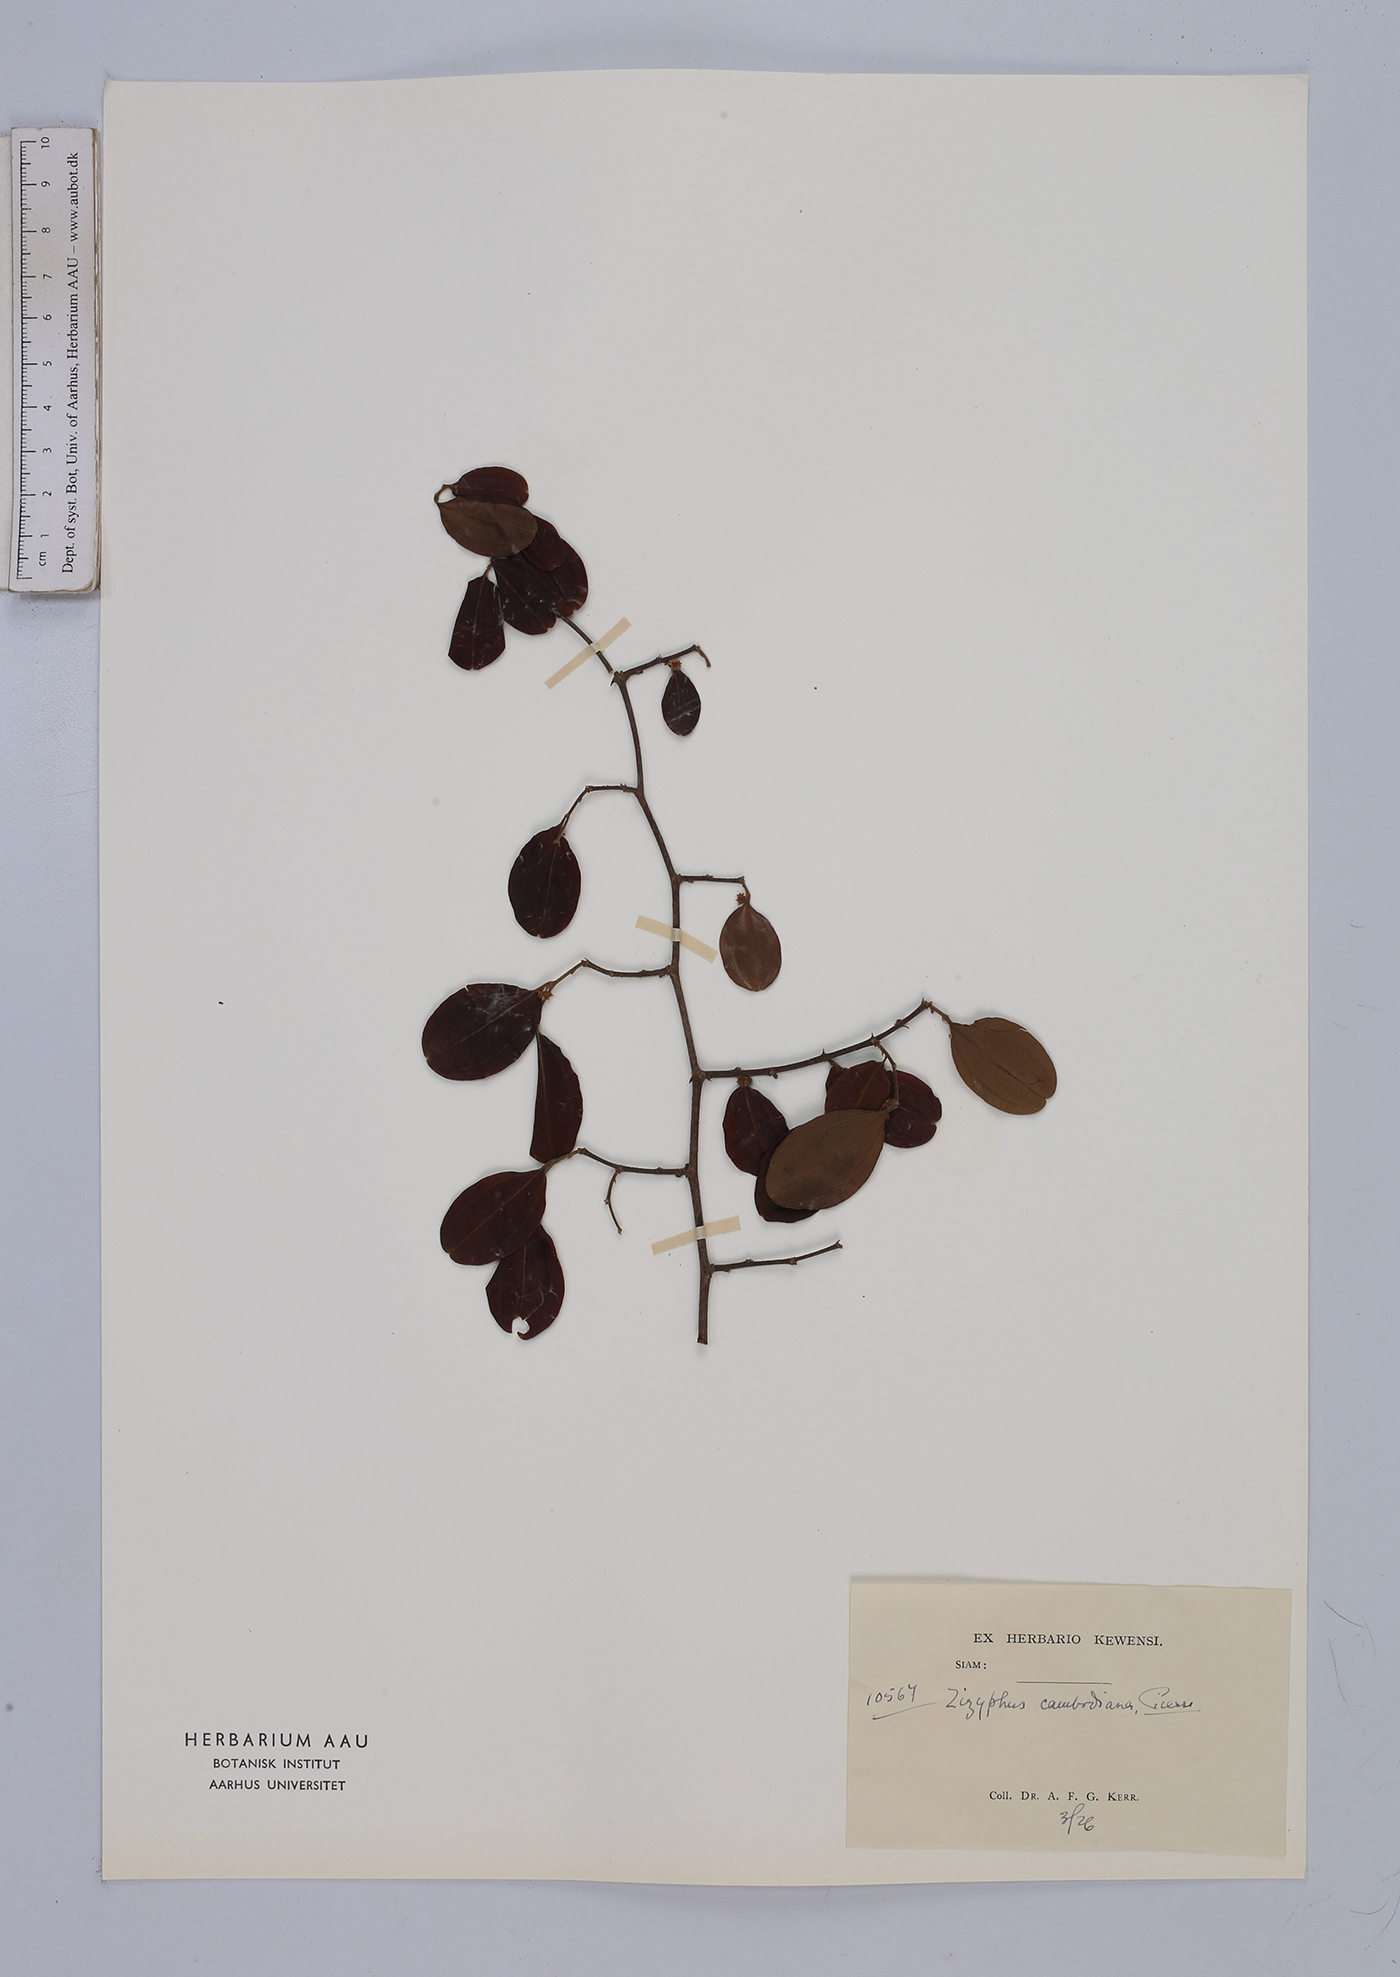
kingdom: Plantae
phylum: Tracheophyta
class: Magnoliopsida
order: Rosales
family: Rhamnaceae
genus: Ziziphus
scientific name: Ziziphus cambodiana
